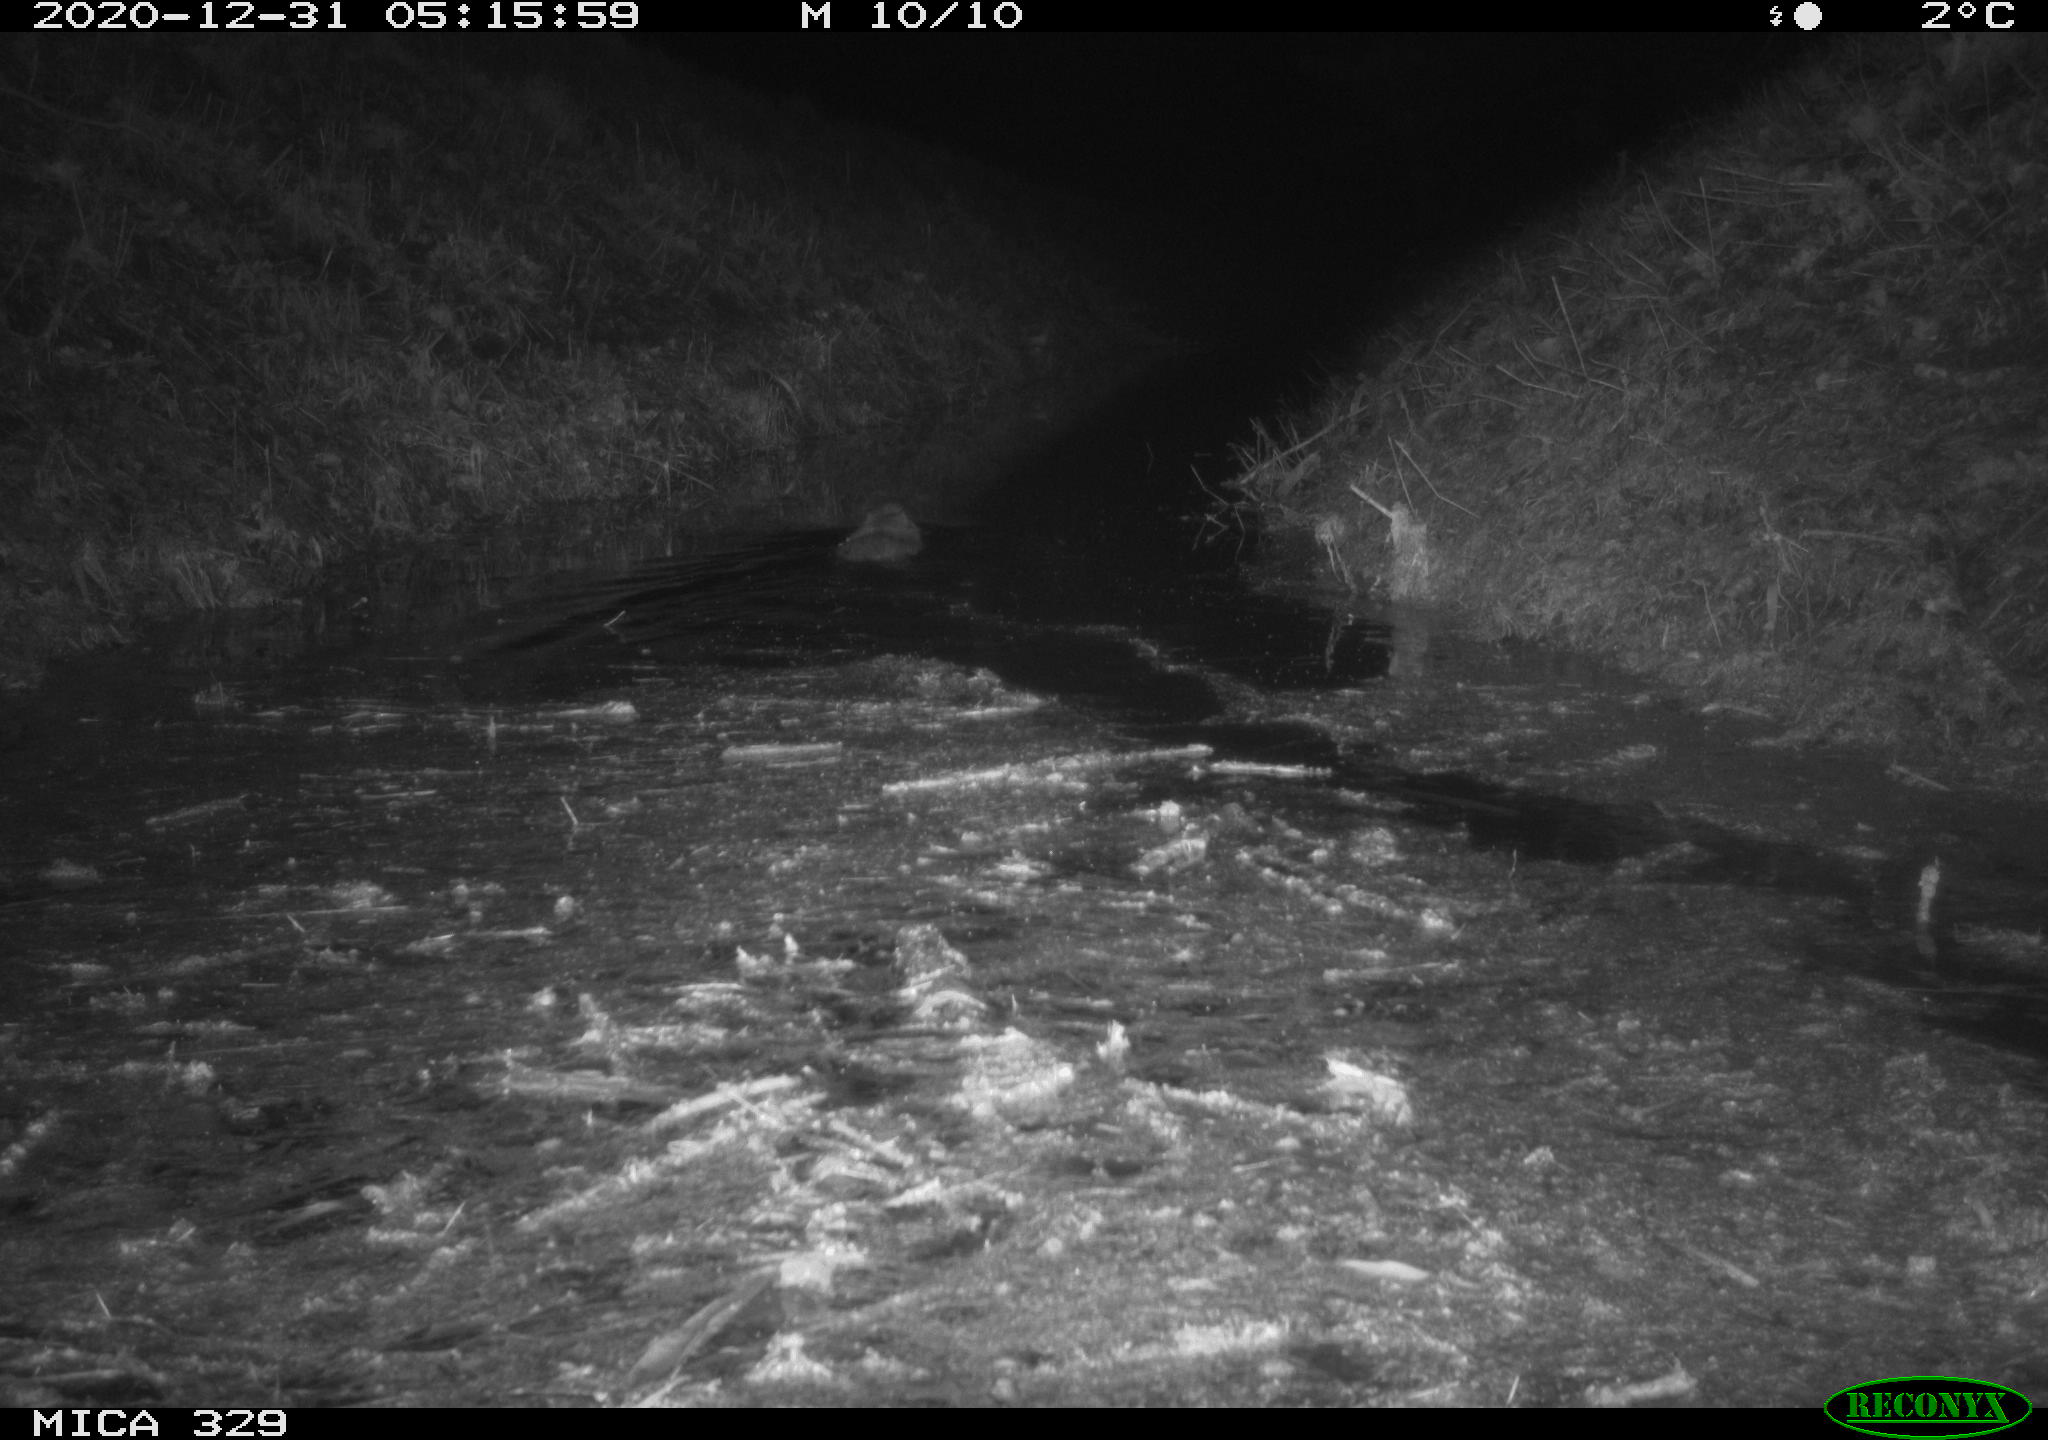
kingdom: Animalia
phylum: Chordata
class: Mammalia
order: Rodentia
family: Myocastoridae
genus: Myocastor
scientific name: Myocastor coypus
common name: Coypu
